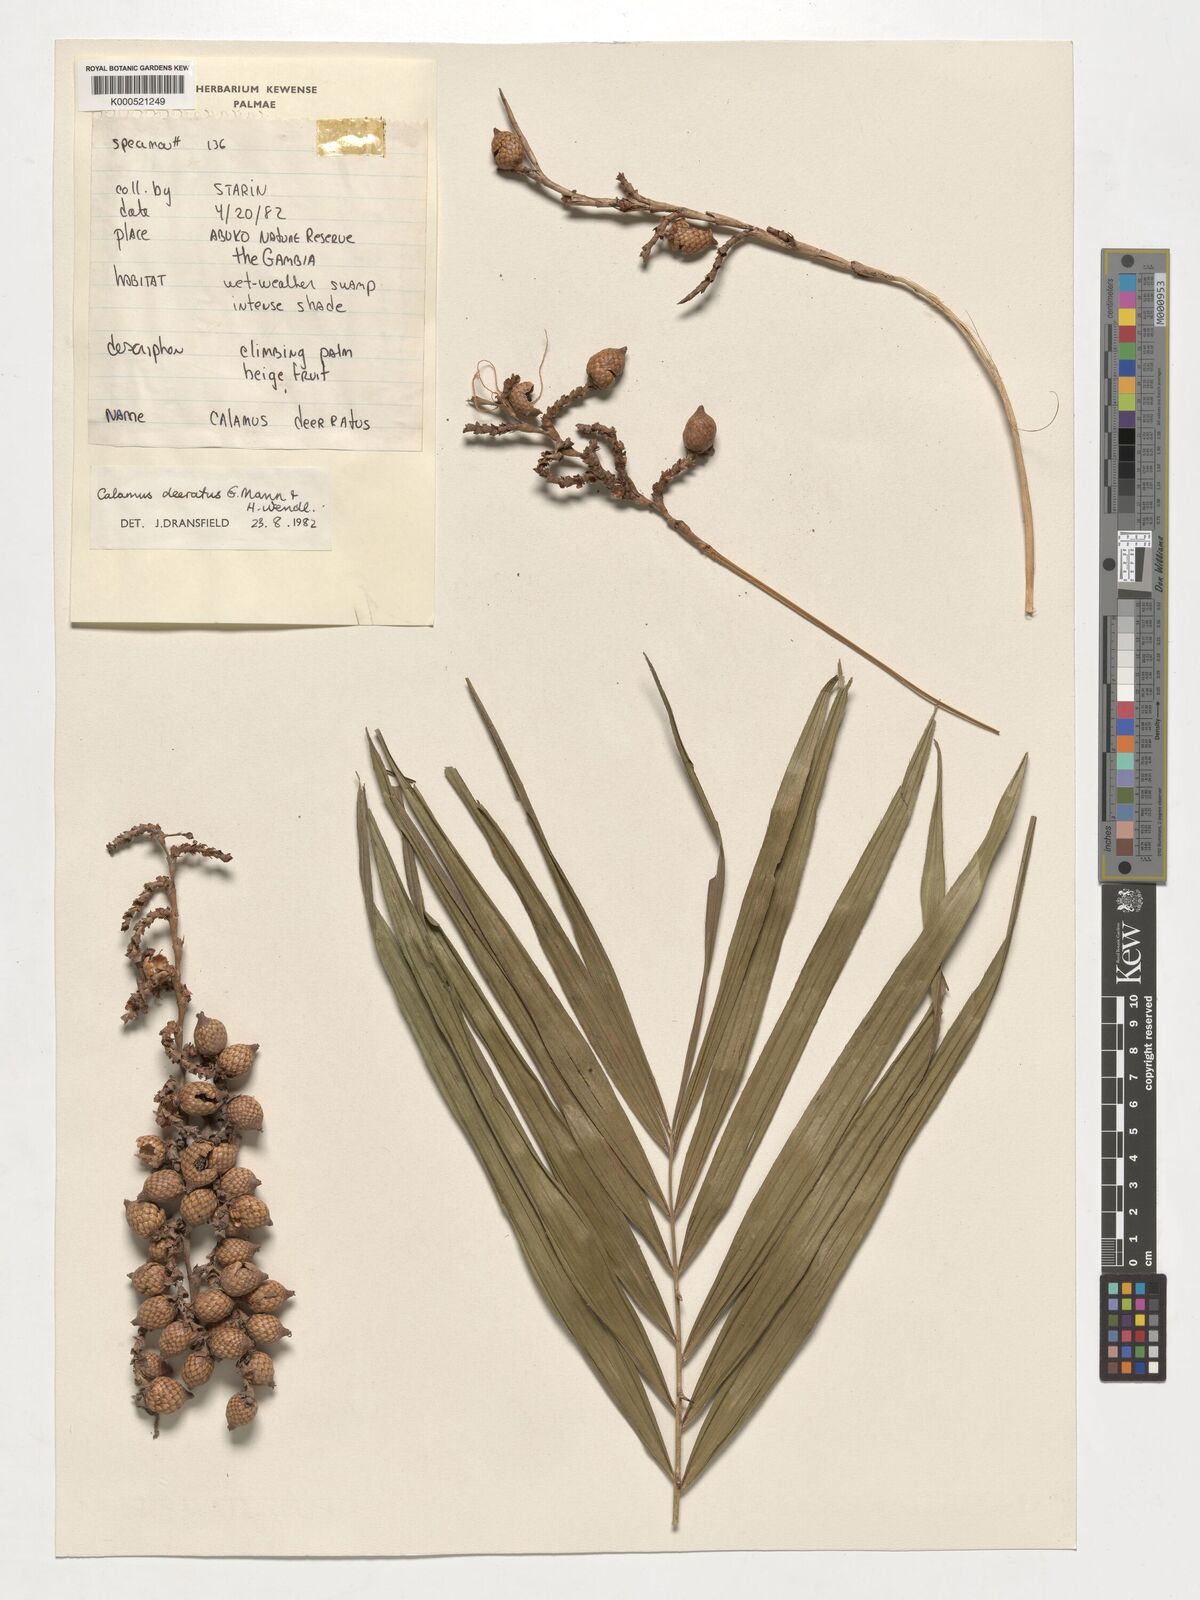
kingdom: Plantae
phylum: Tracheophyta
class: Liliopsida
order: Arecales
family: Arecaceae
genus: Calamus
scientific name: Calamus deerratus
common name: Rattan
